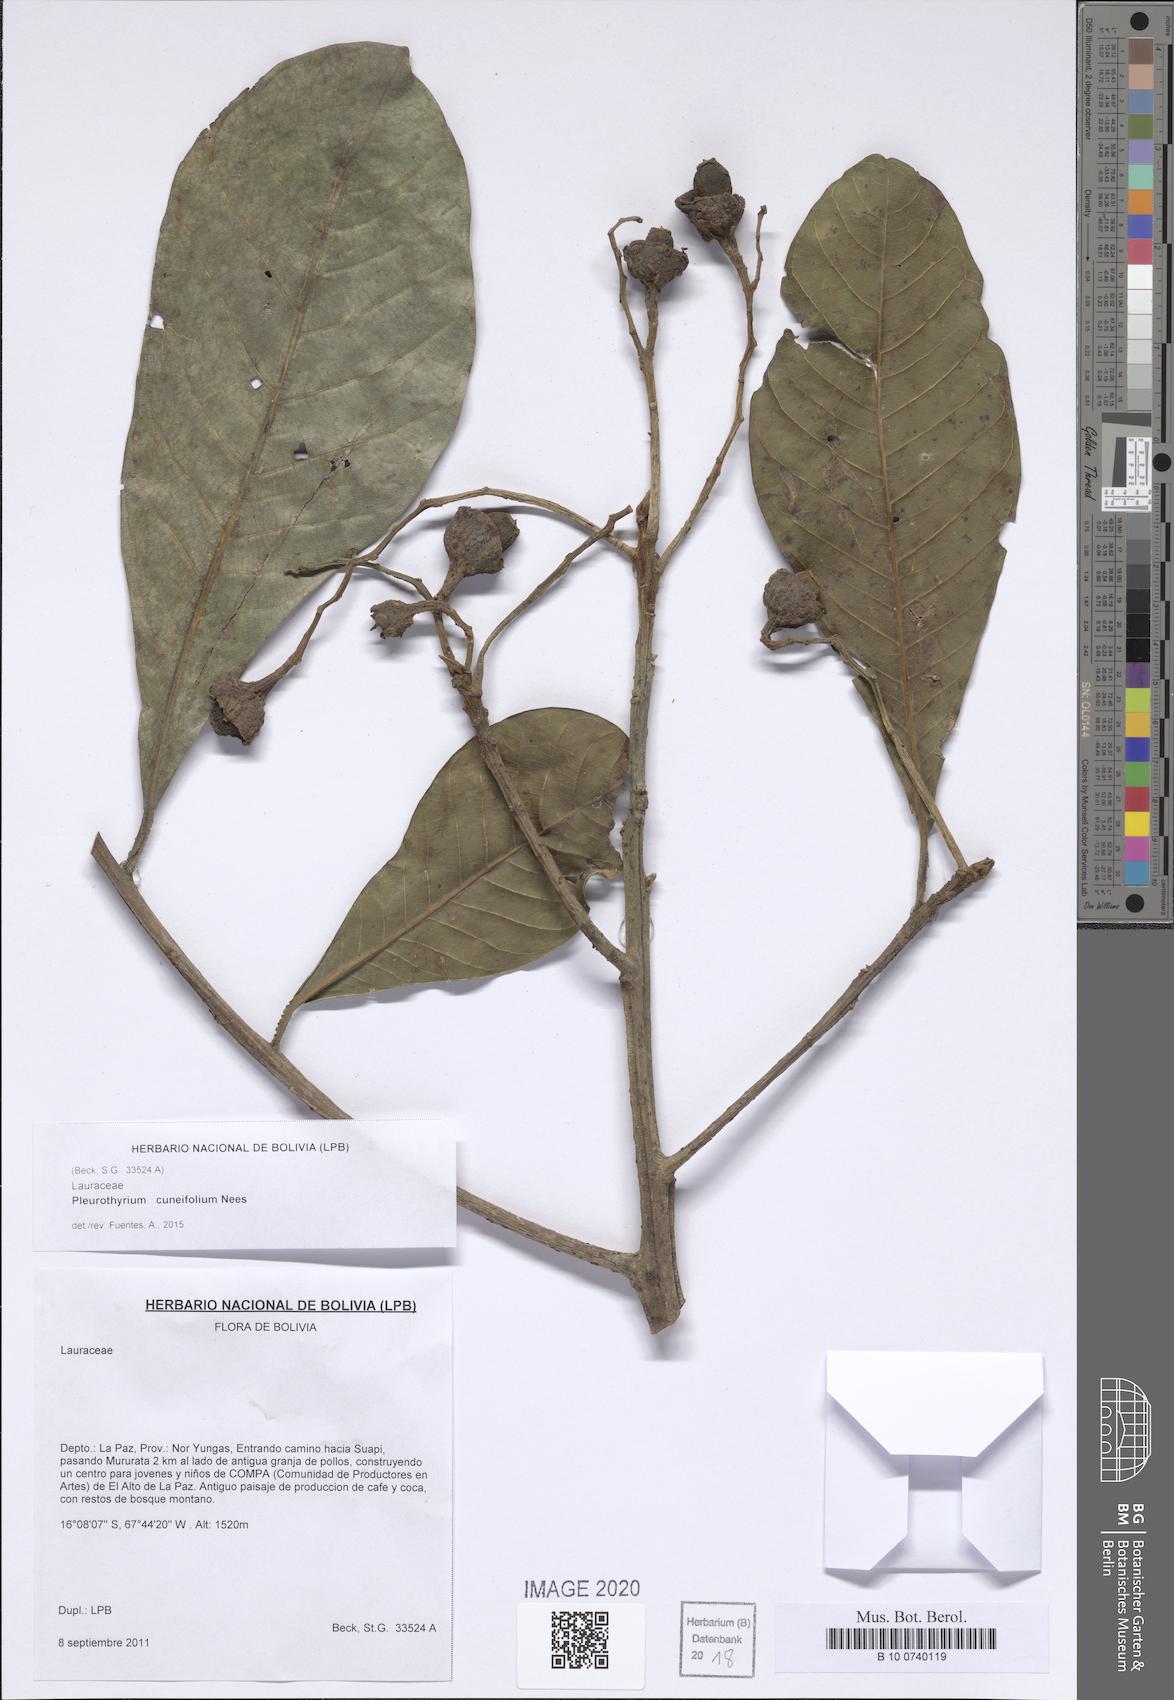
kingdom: Plantae
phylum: Tracheophyta
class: Magnoliopsida
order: Laurales
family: Lauraceae
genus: Pleurothyrium
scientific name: Pleurothyrium cuneifolium
